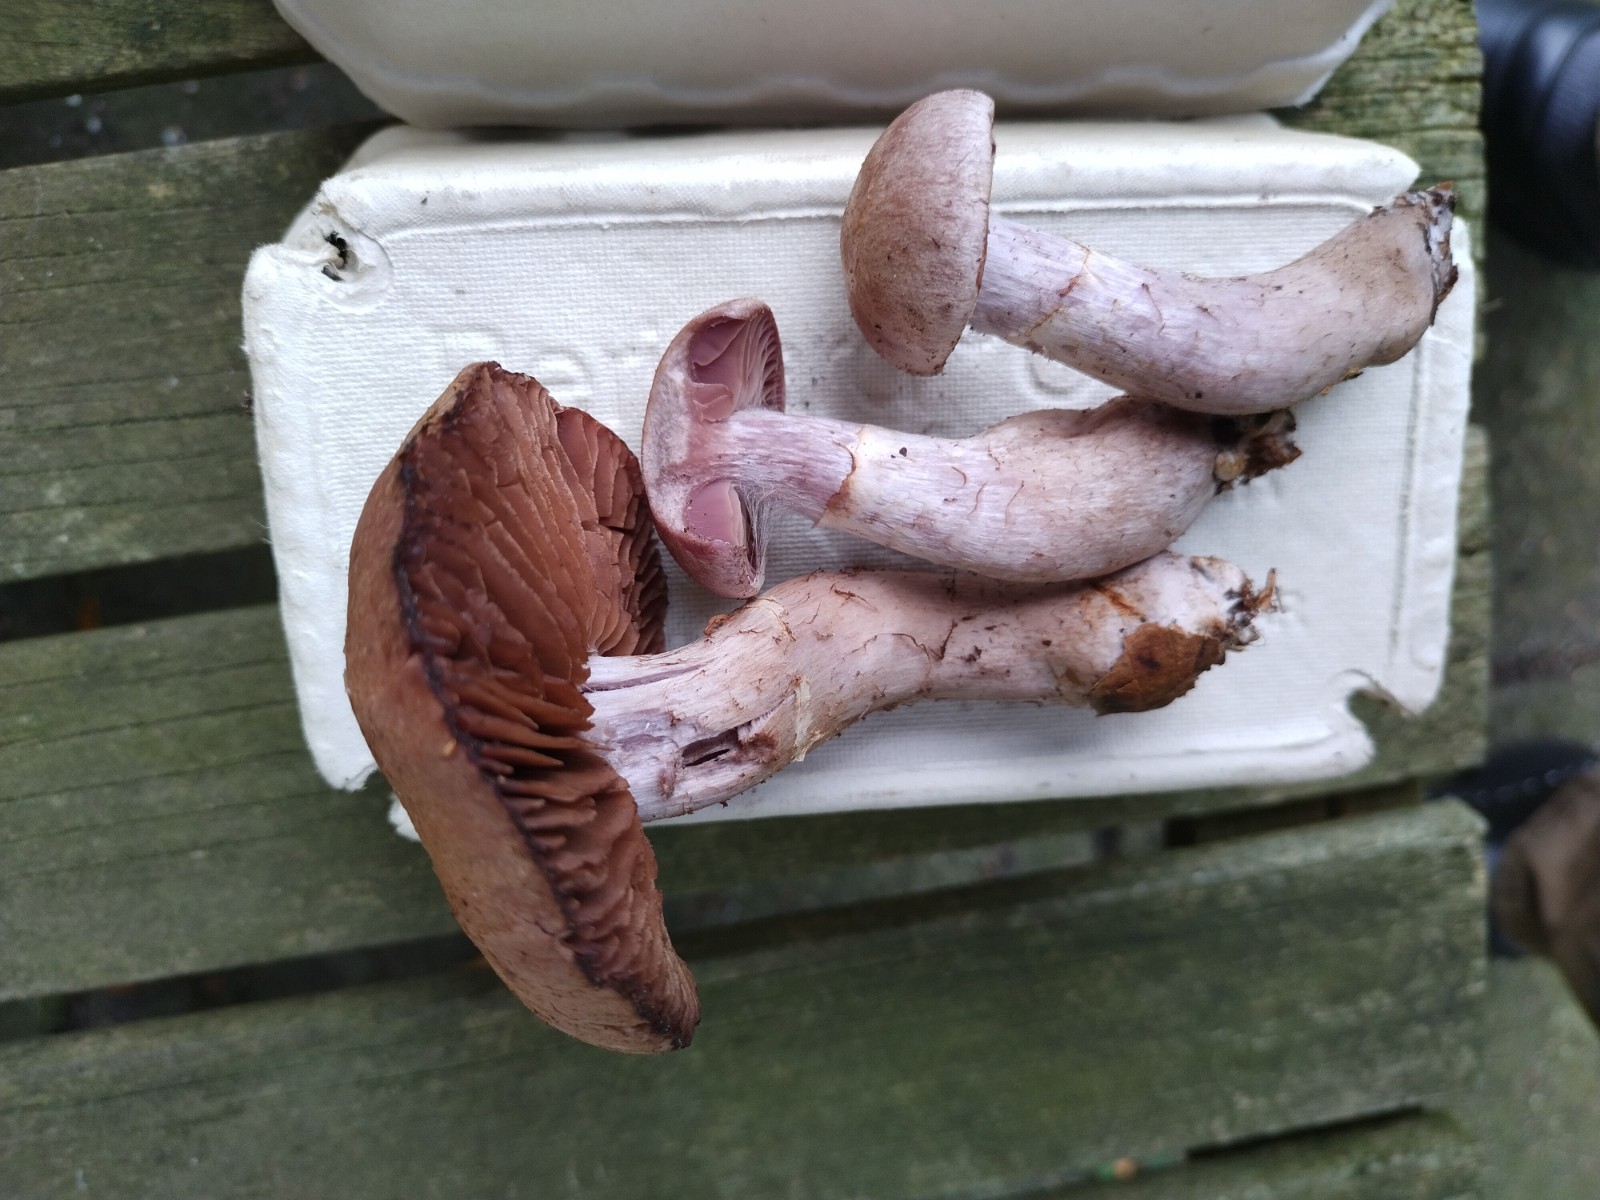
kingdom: Fungi
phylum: Basidiomycota
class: Agaricomycetes
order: Agaricales
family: Cortinariaceae
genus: Cortinarius
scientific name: Cortinarius torvus
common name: champignonagtig slørhat
